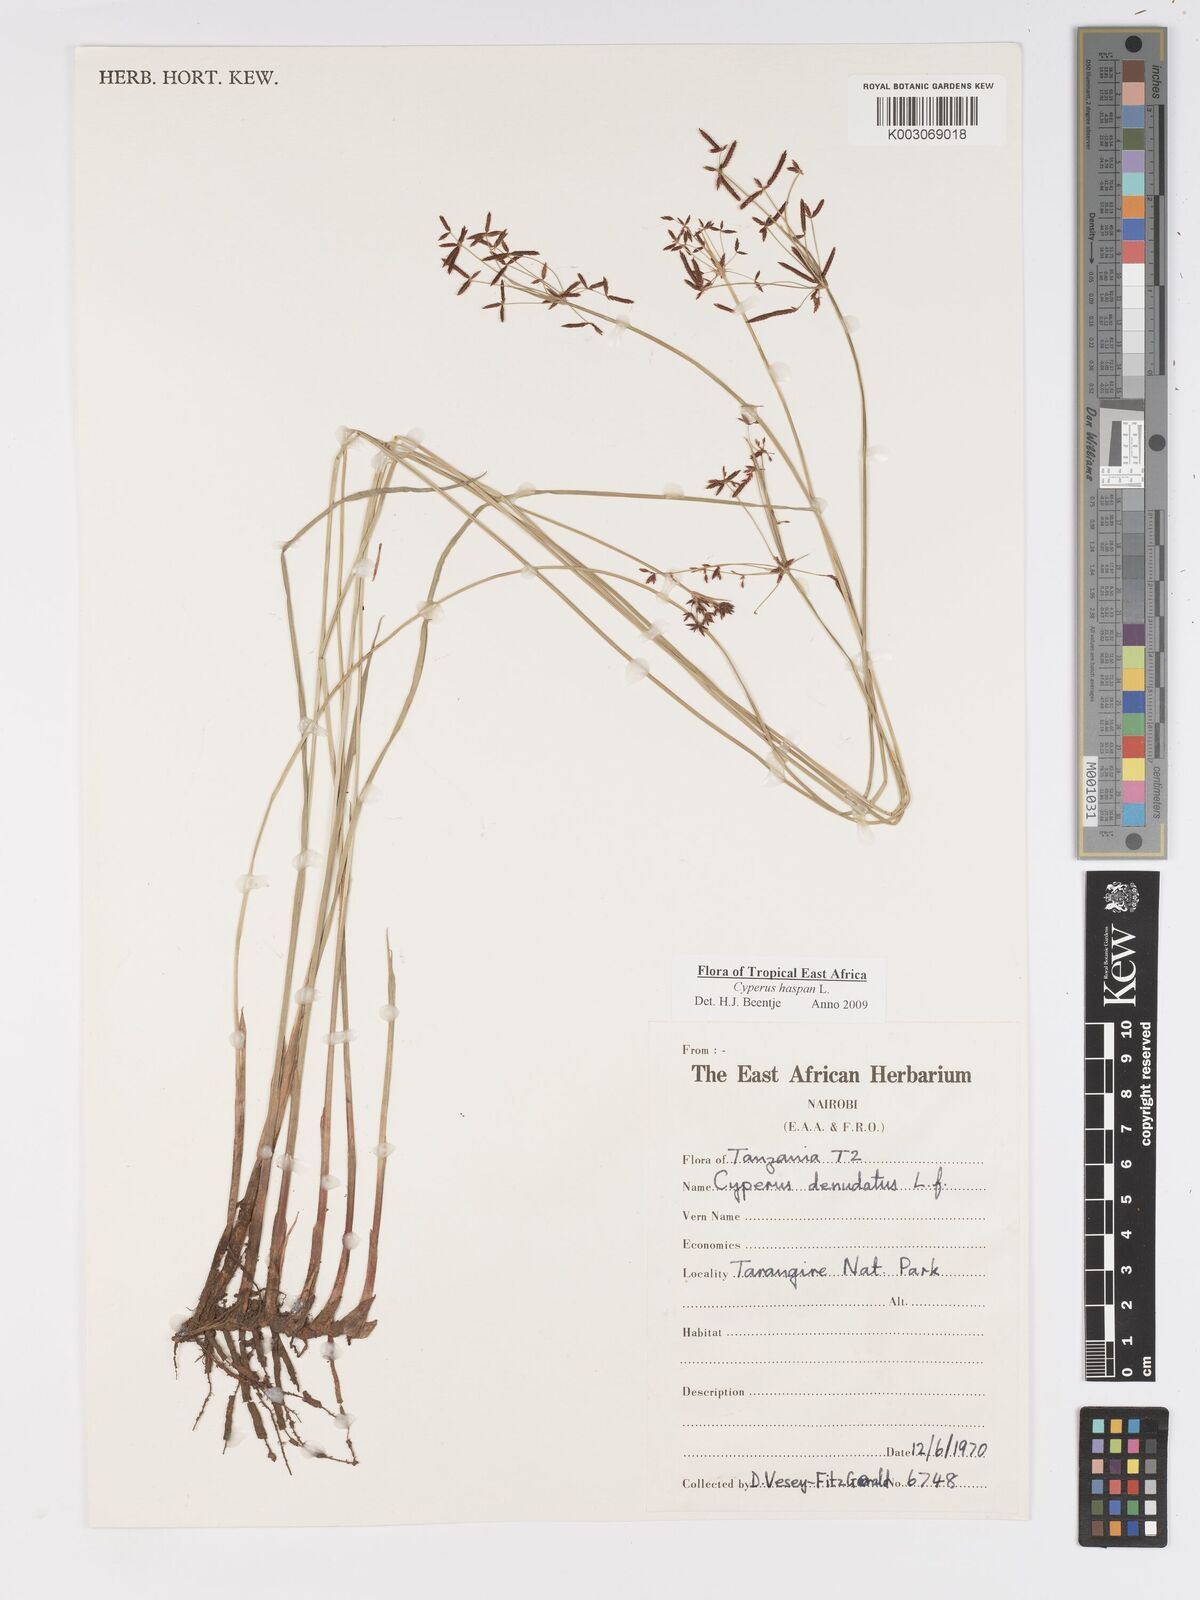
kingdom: Plantae
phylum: Tracheophyta
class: Liliopsida
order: Poales
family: Cyperaceae
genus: Cyperus
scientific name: Cyperus
